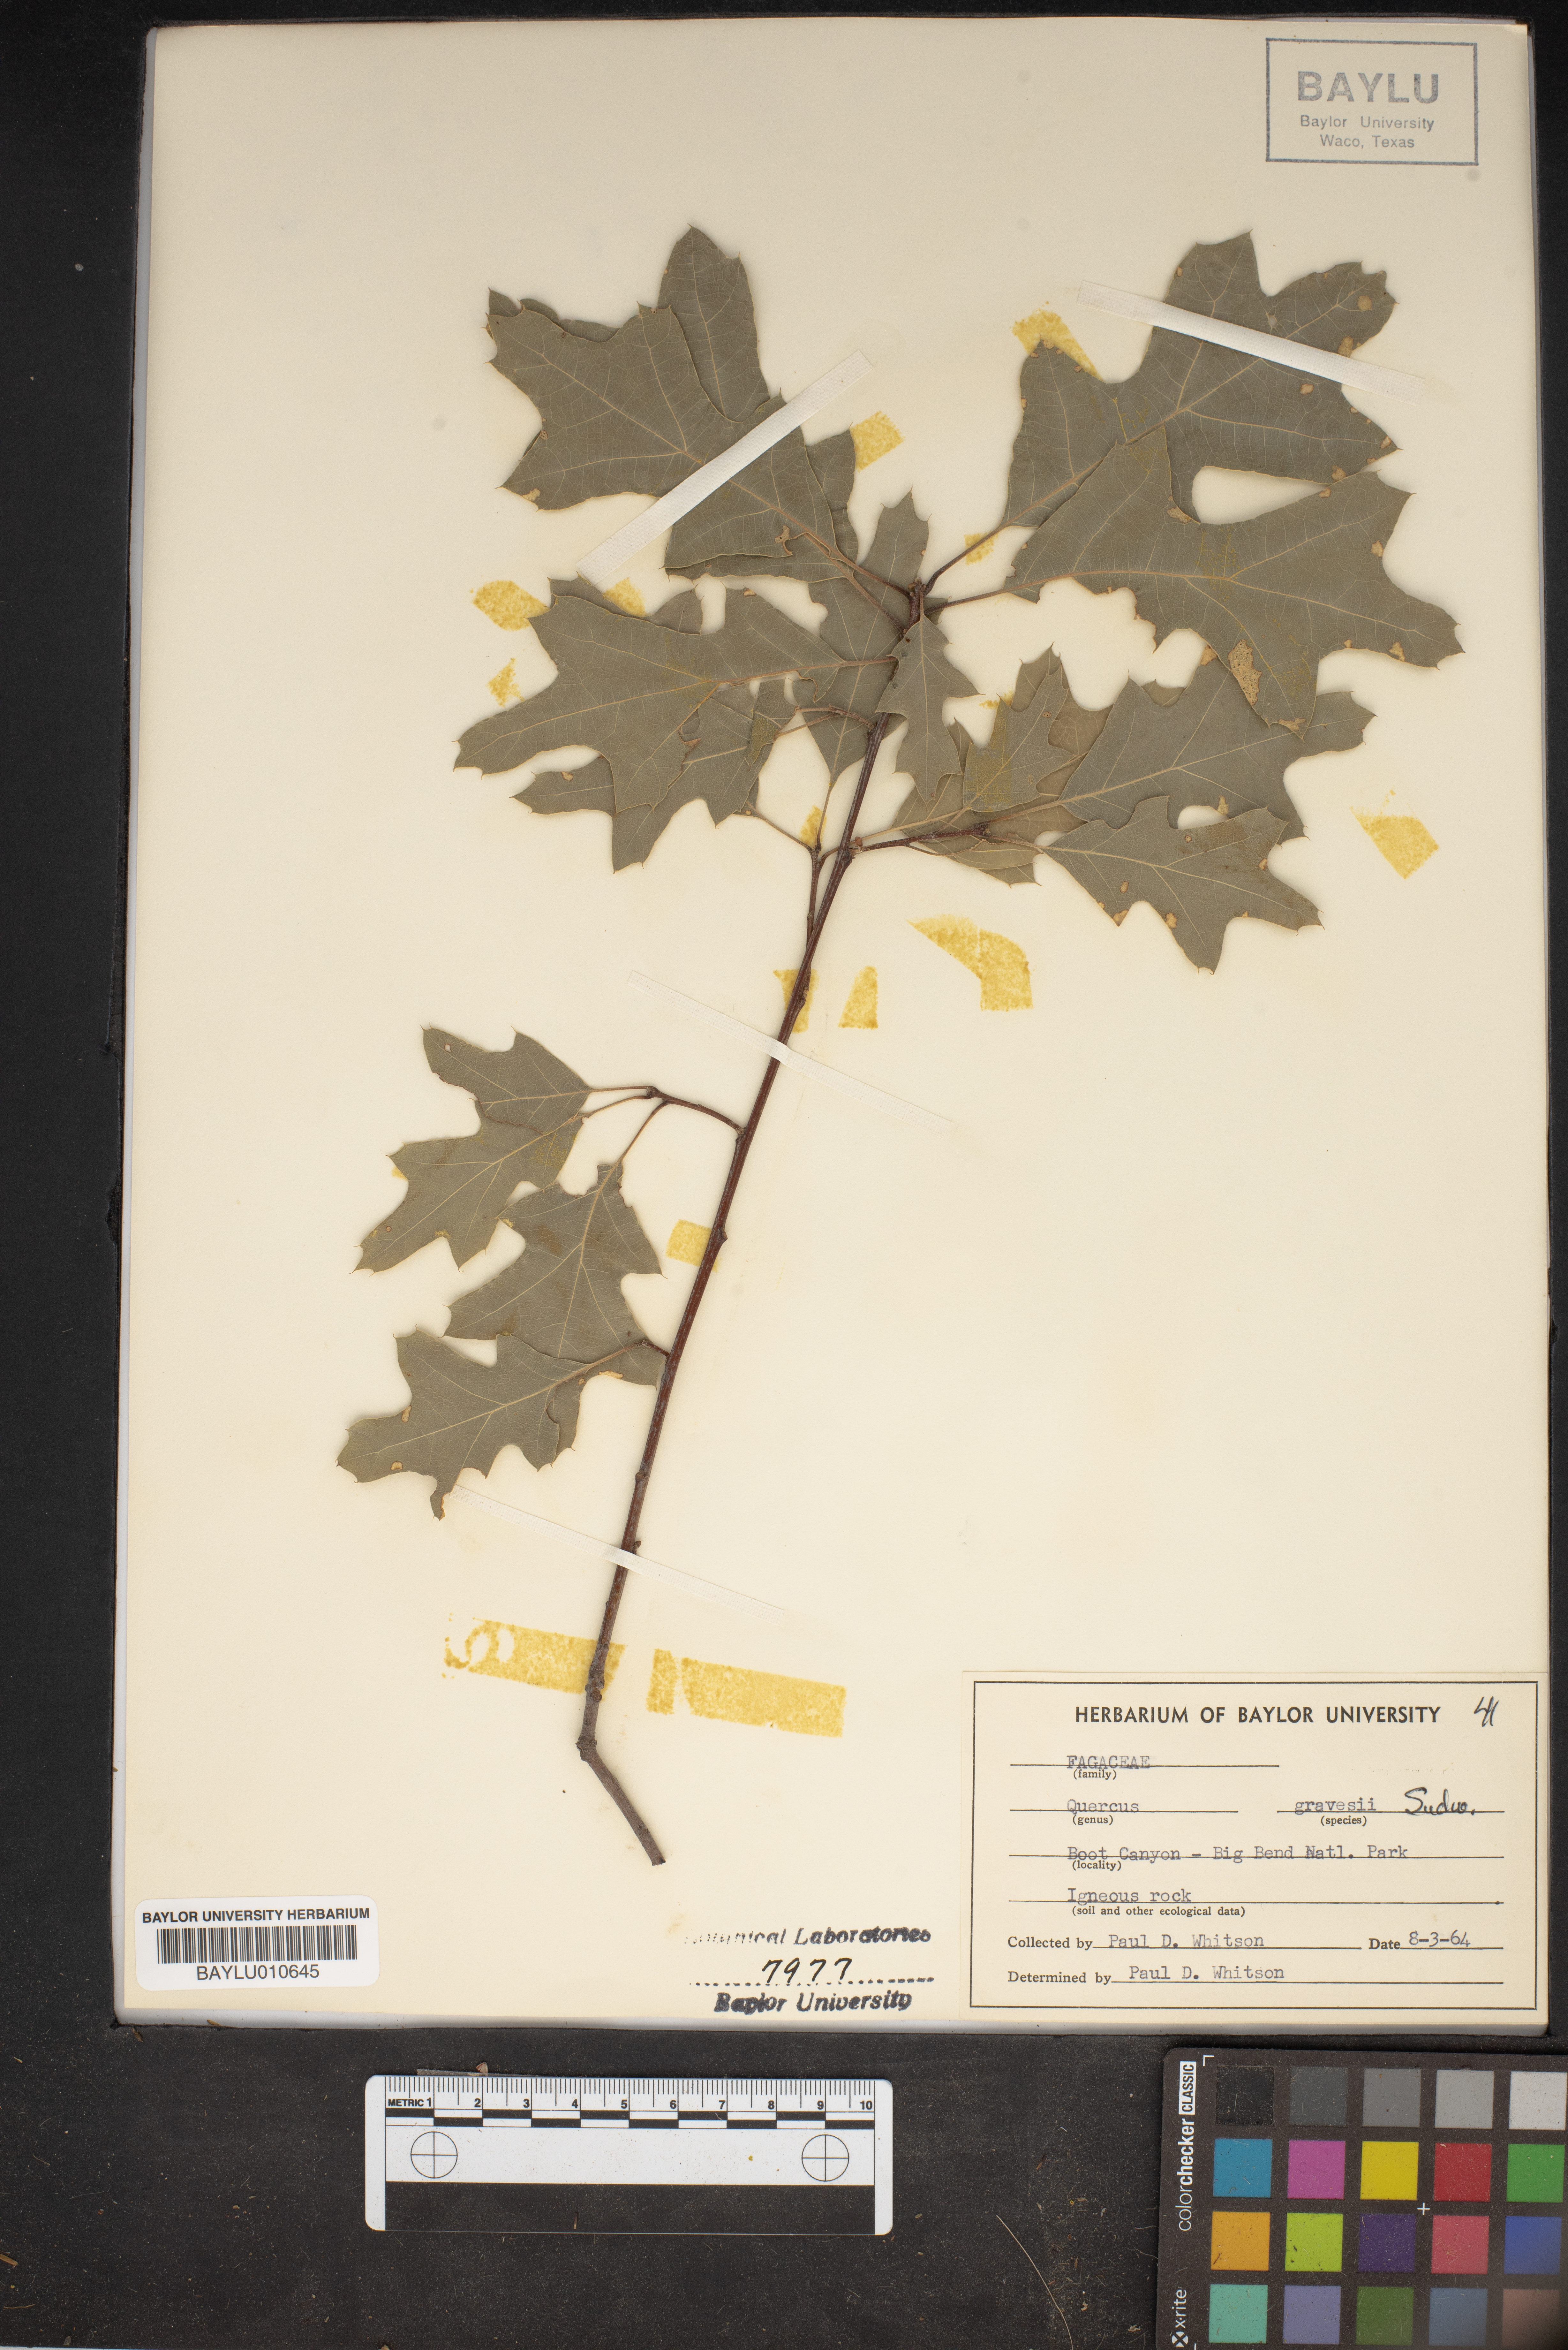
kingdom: Plantae
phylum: Tracheophyta
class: Magnoliopsida
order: Fagales
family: Fagaceae
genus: Quercus
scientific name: Quercus gravesii
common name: Chisos red oak
